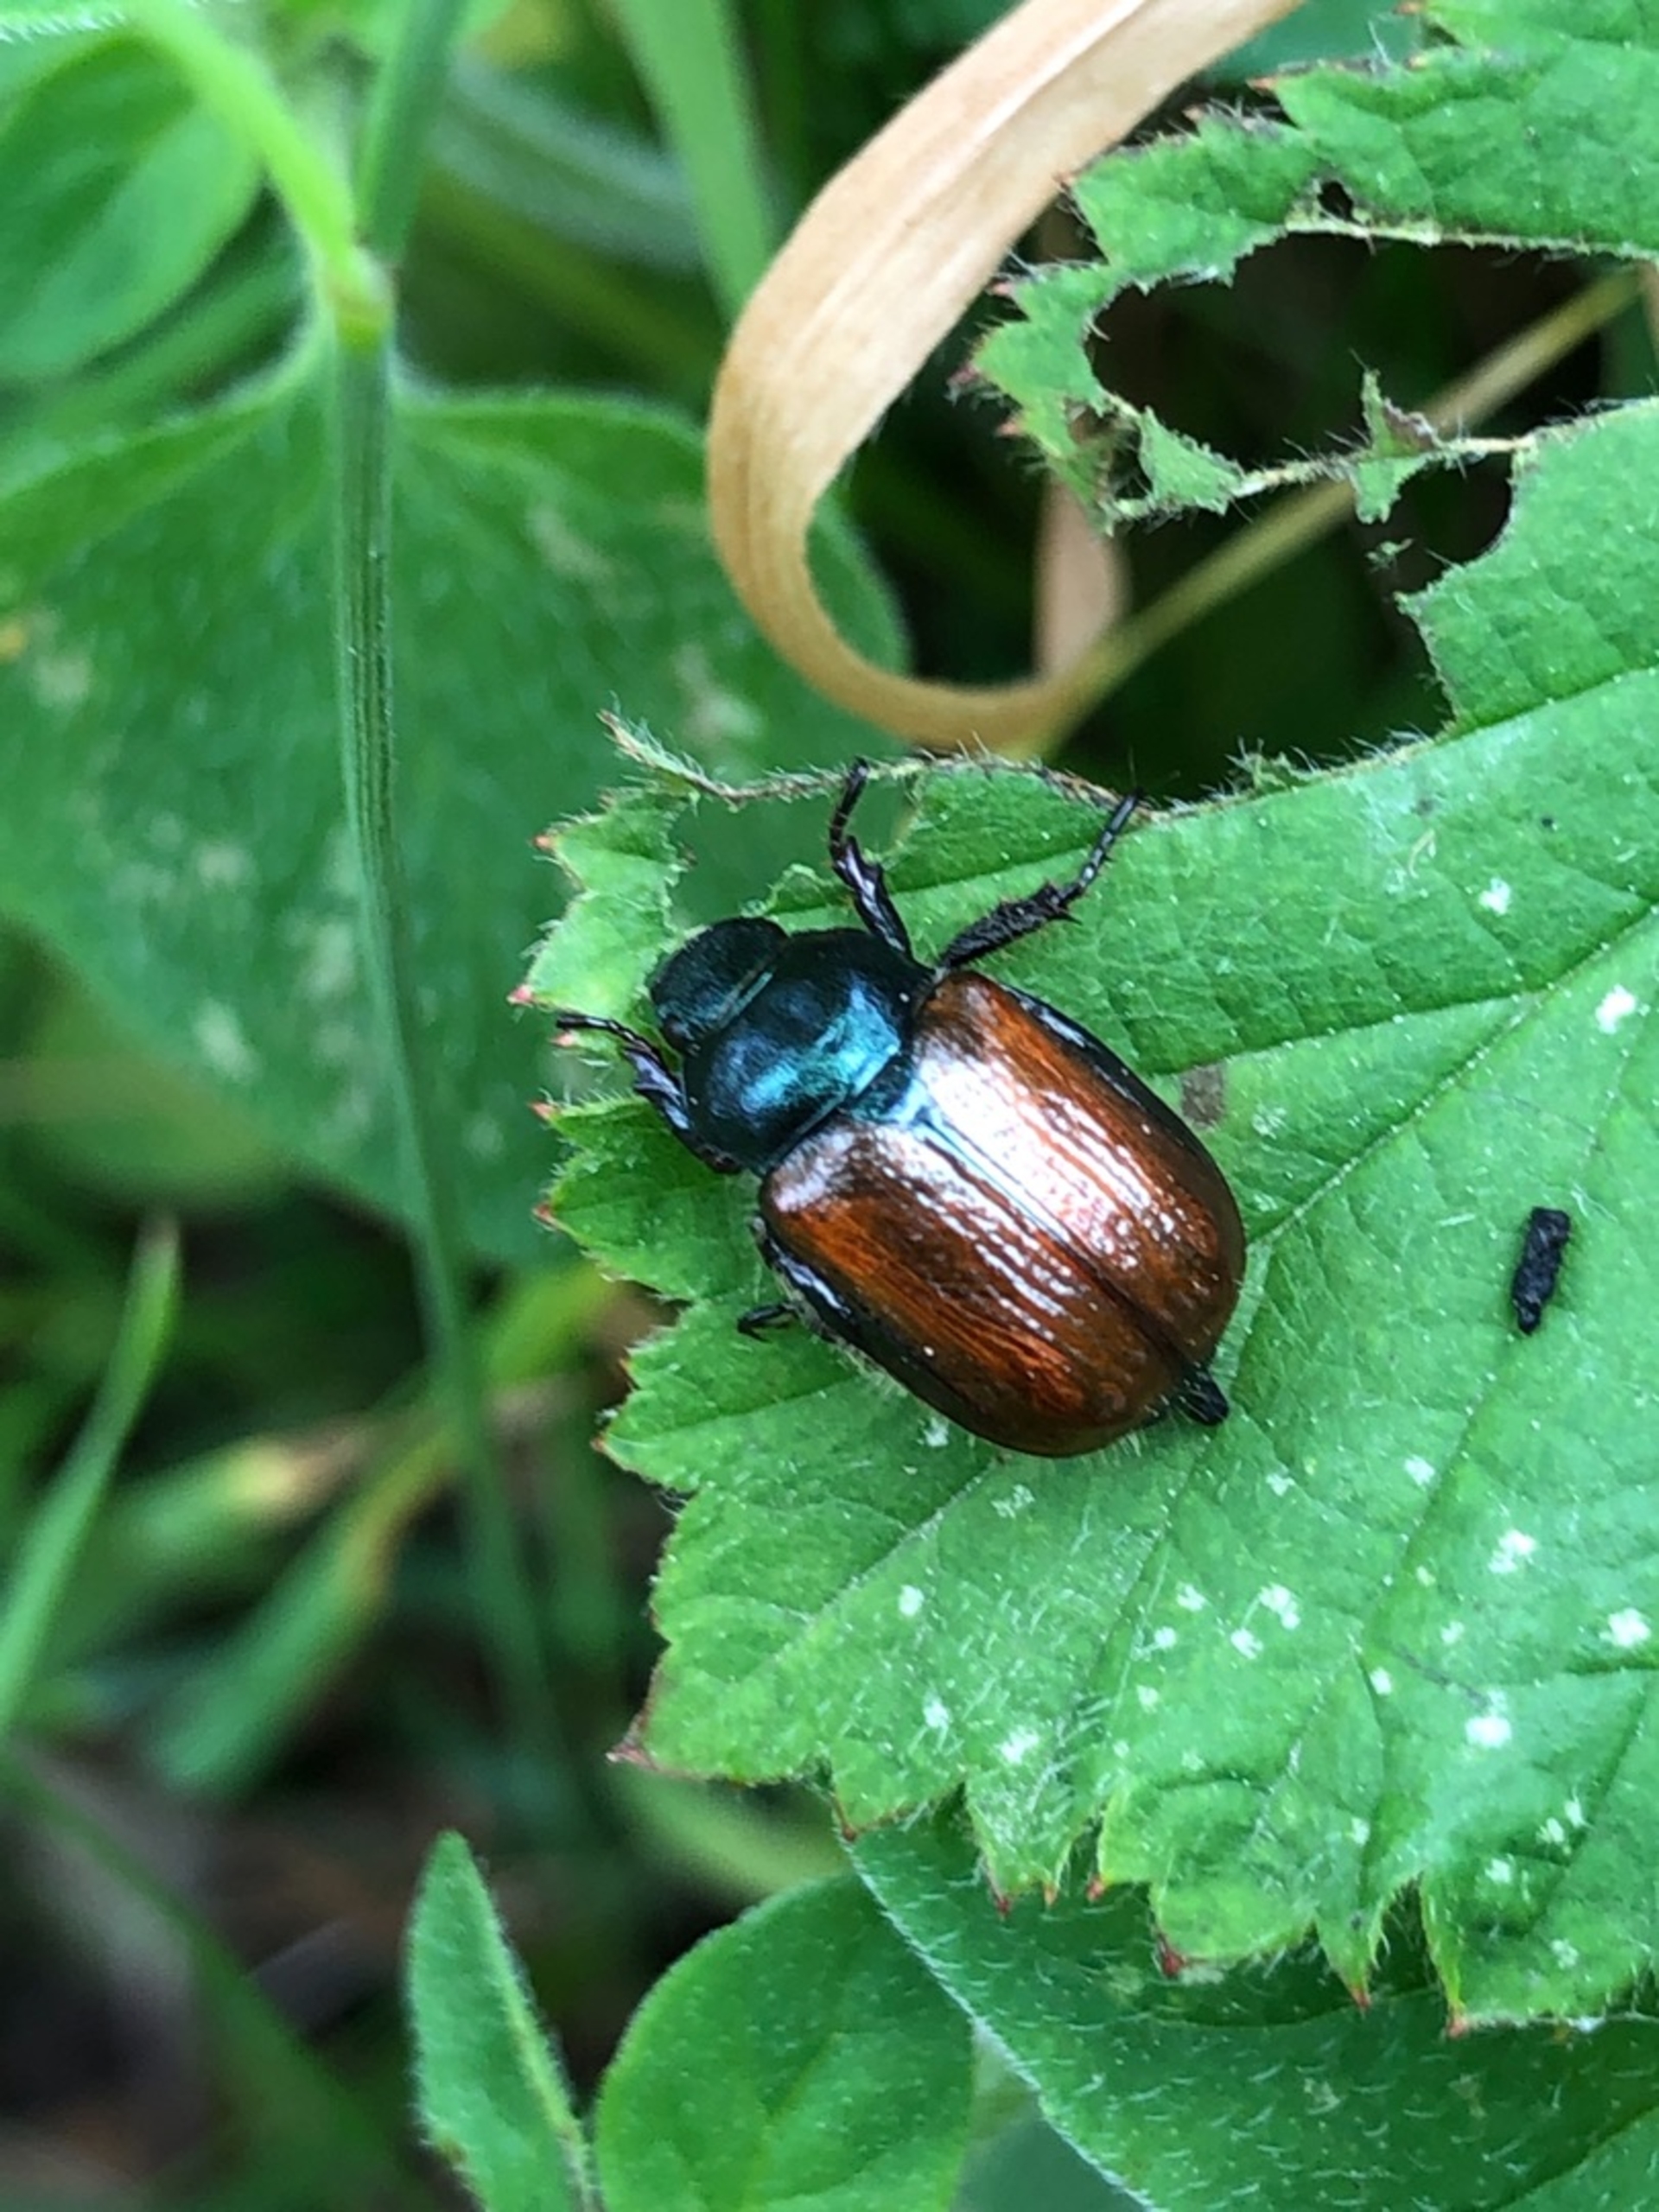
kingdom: Animalia
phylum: Arthropoda
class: Insecta
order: Coleoptera
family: Scarabaeidae
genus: Phyllopertha
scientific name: Phyllopertha horticola
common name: Gåsebille
